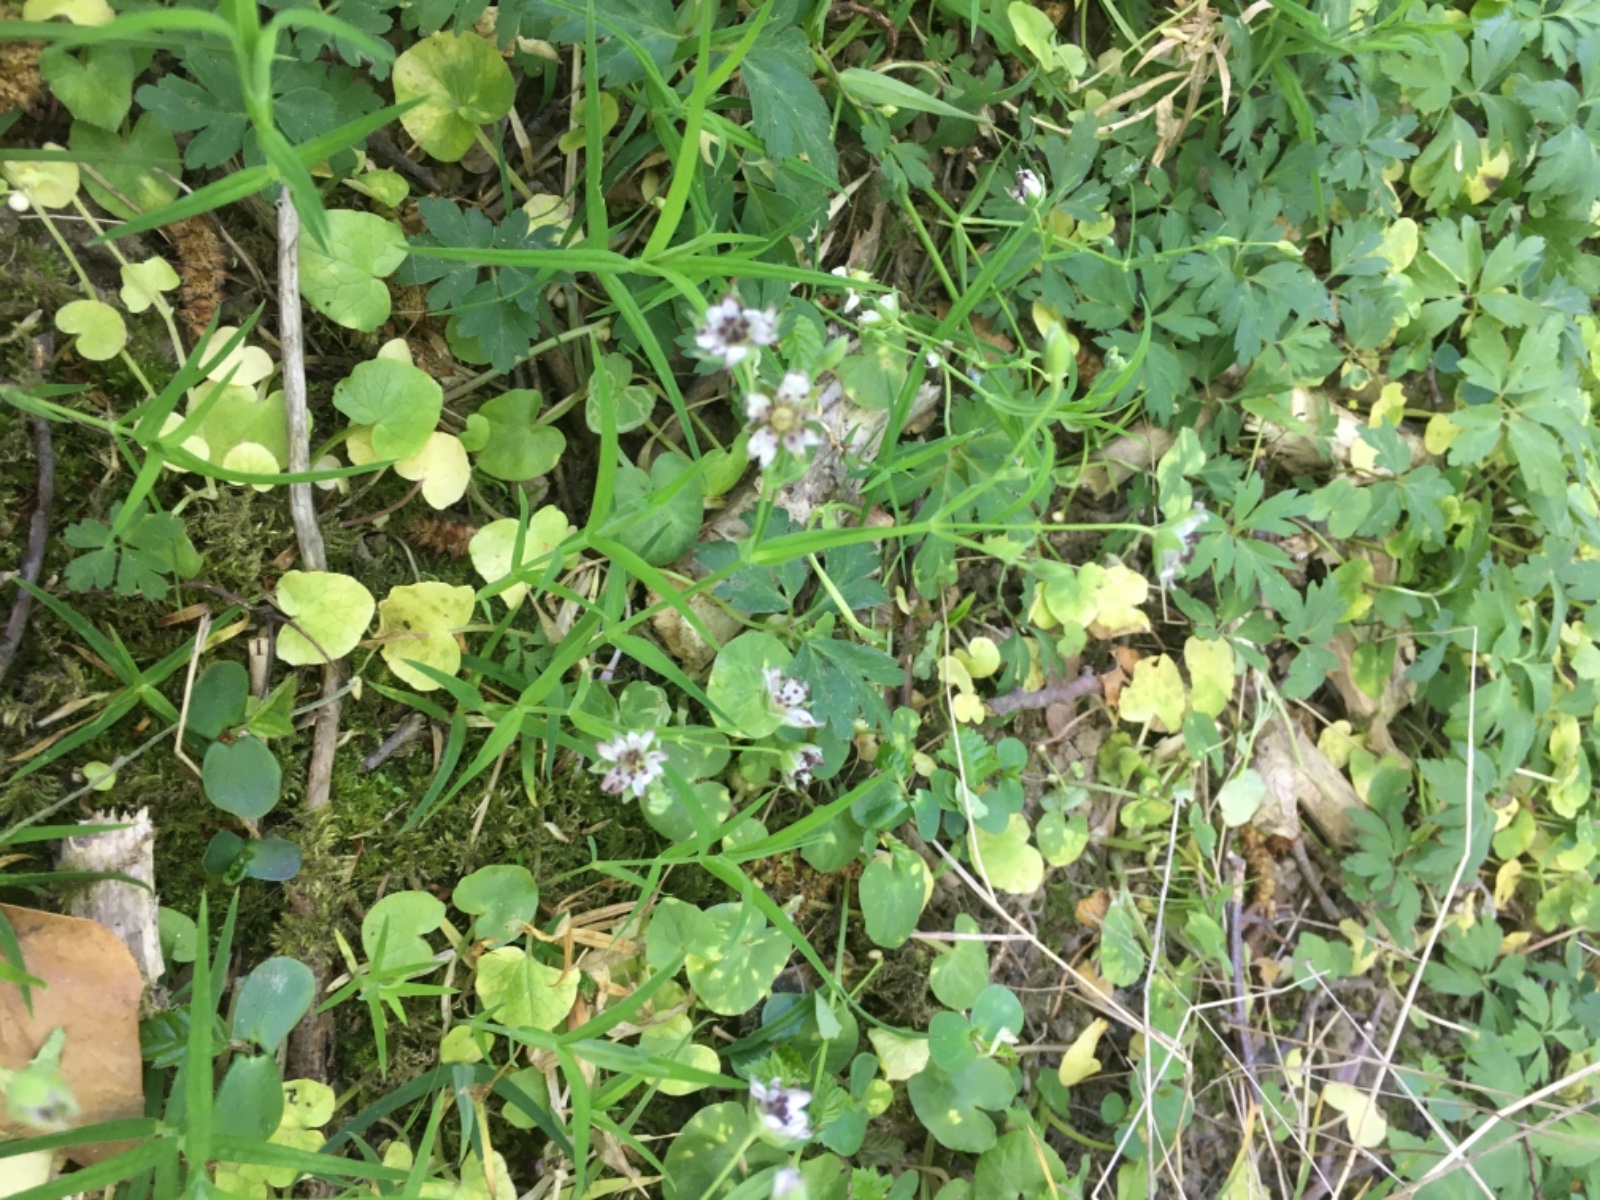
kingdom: Fungi
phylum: Basidiomycota
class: Microbotryomycetes
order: Microbotryales
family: Microbotryaceae
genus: Microbotryum
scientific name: Microbotryum stellariae
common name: fladstjerne-støvbladrust
